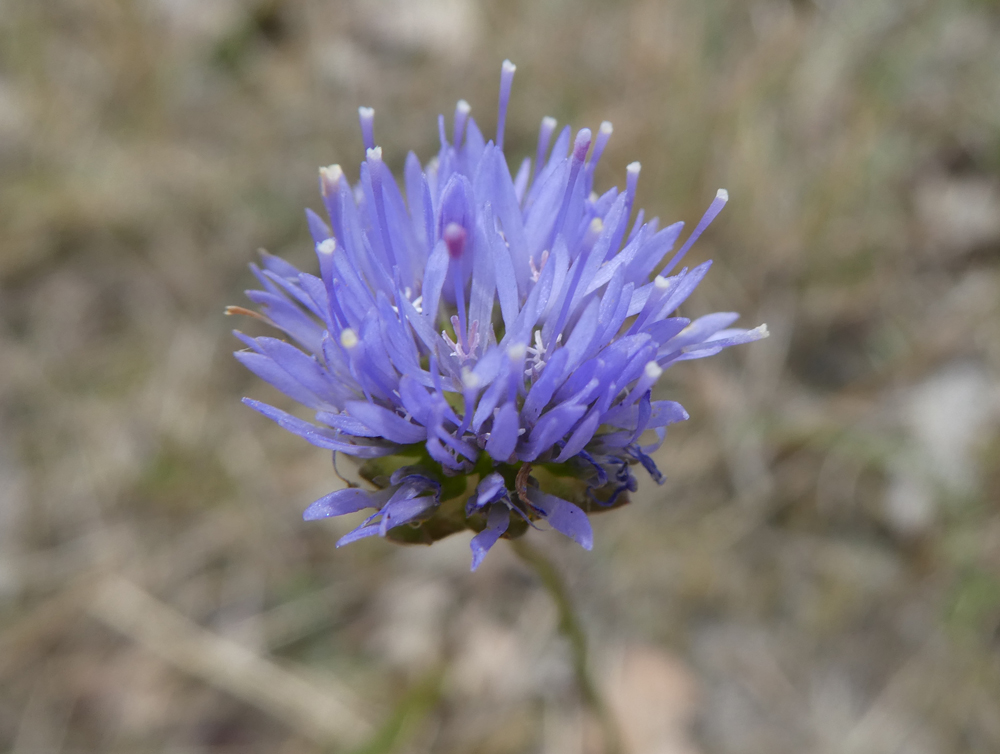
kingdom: Plantae
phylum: Tracheophyta
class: Magnoliopsida
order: Asterales
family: Campanulaceae
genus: Jasione
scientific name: Jasione montana
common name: Sheep's-bit
